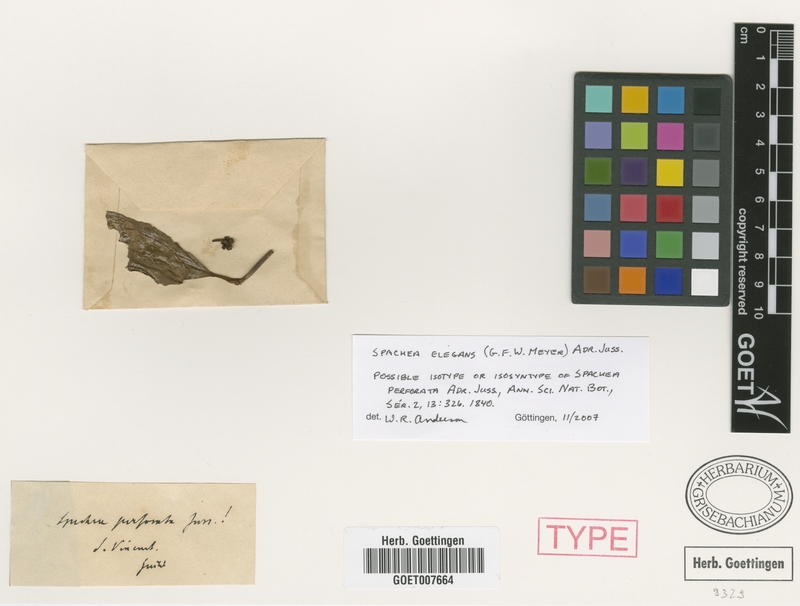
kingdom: Plantae
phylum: Tracheophyta
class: Magnoliopsida
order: Malpighiales
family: Malpighiaceae
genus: Spachea
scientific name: Spachea elegans
